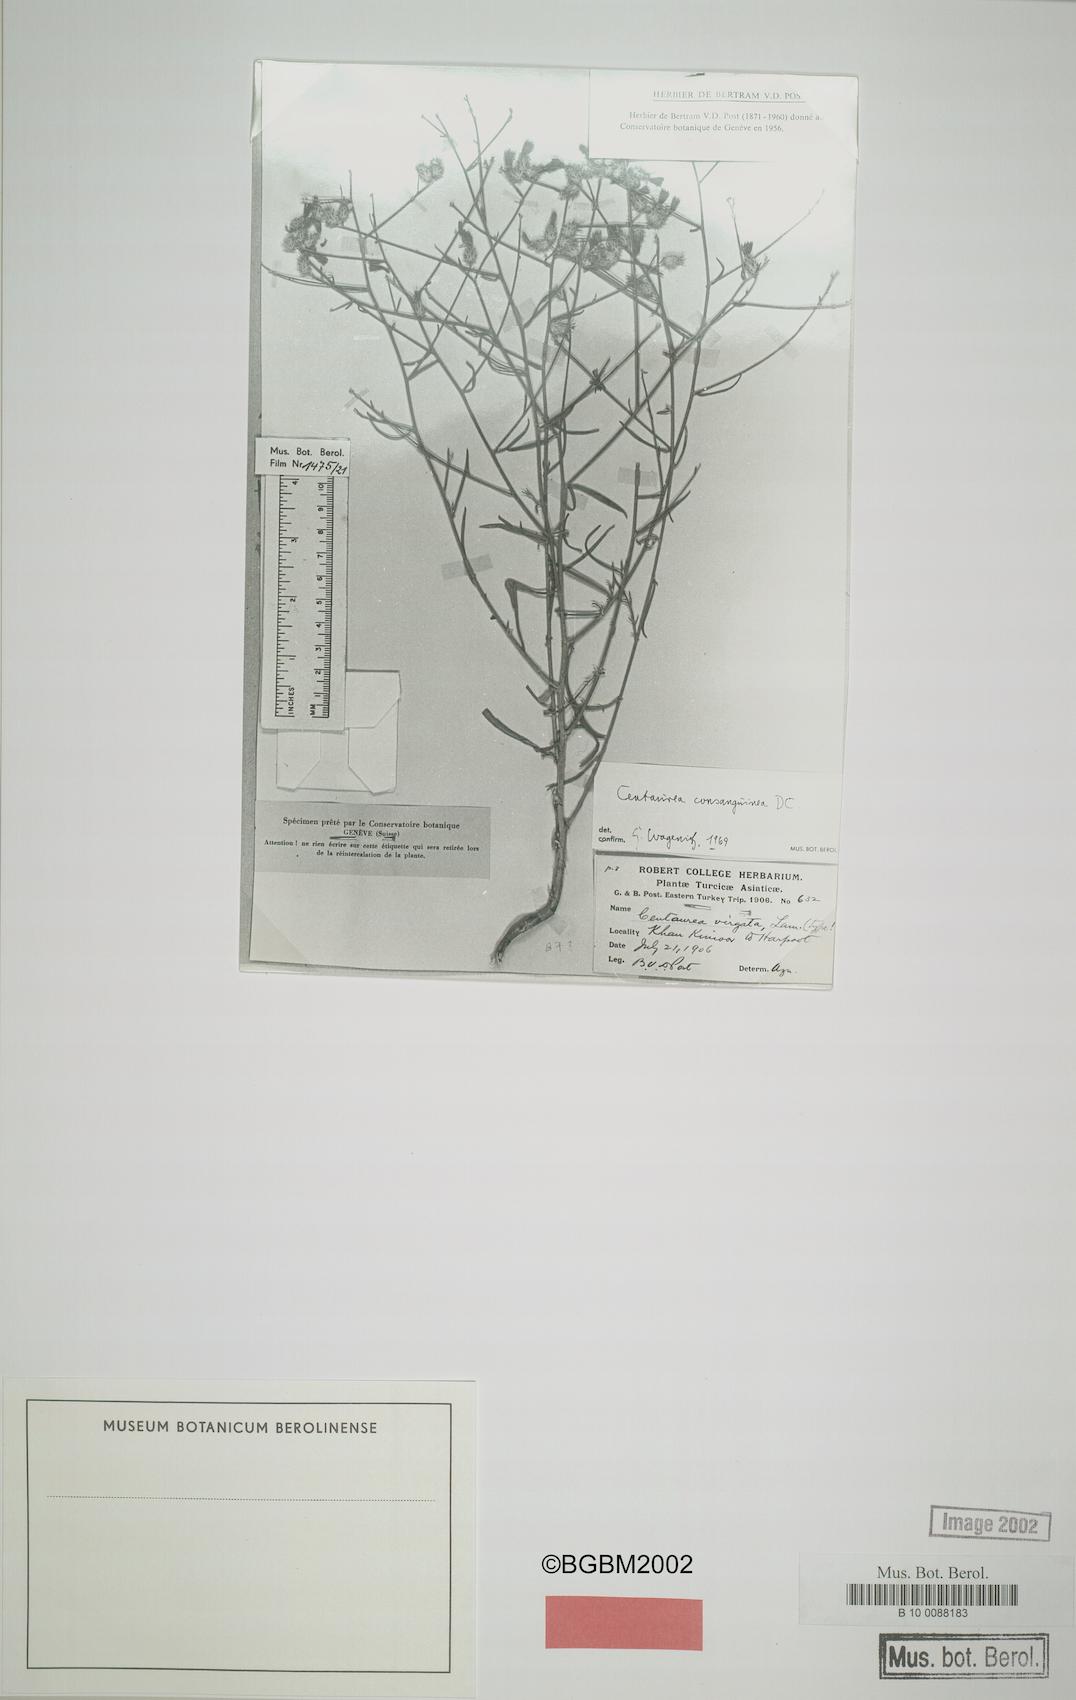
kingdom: Plantae
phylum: Tracheophyta
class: Magnoliopsida
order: Asterales
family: Asteraceae
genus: Centaurea
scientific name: Centaurea consanguinea
